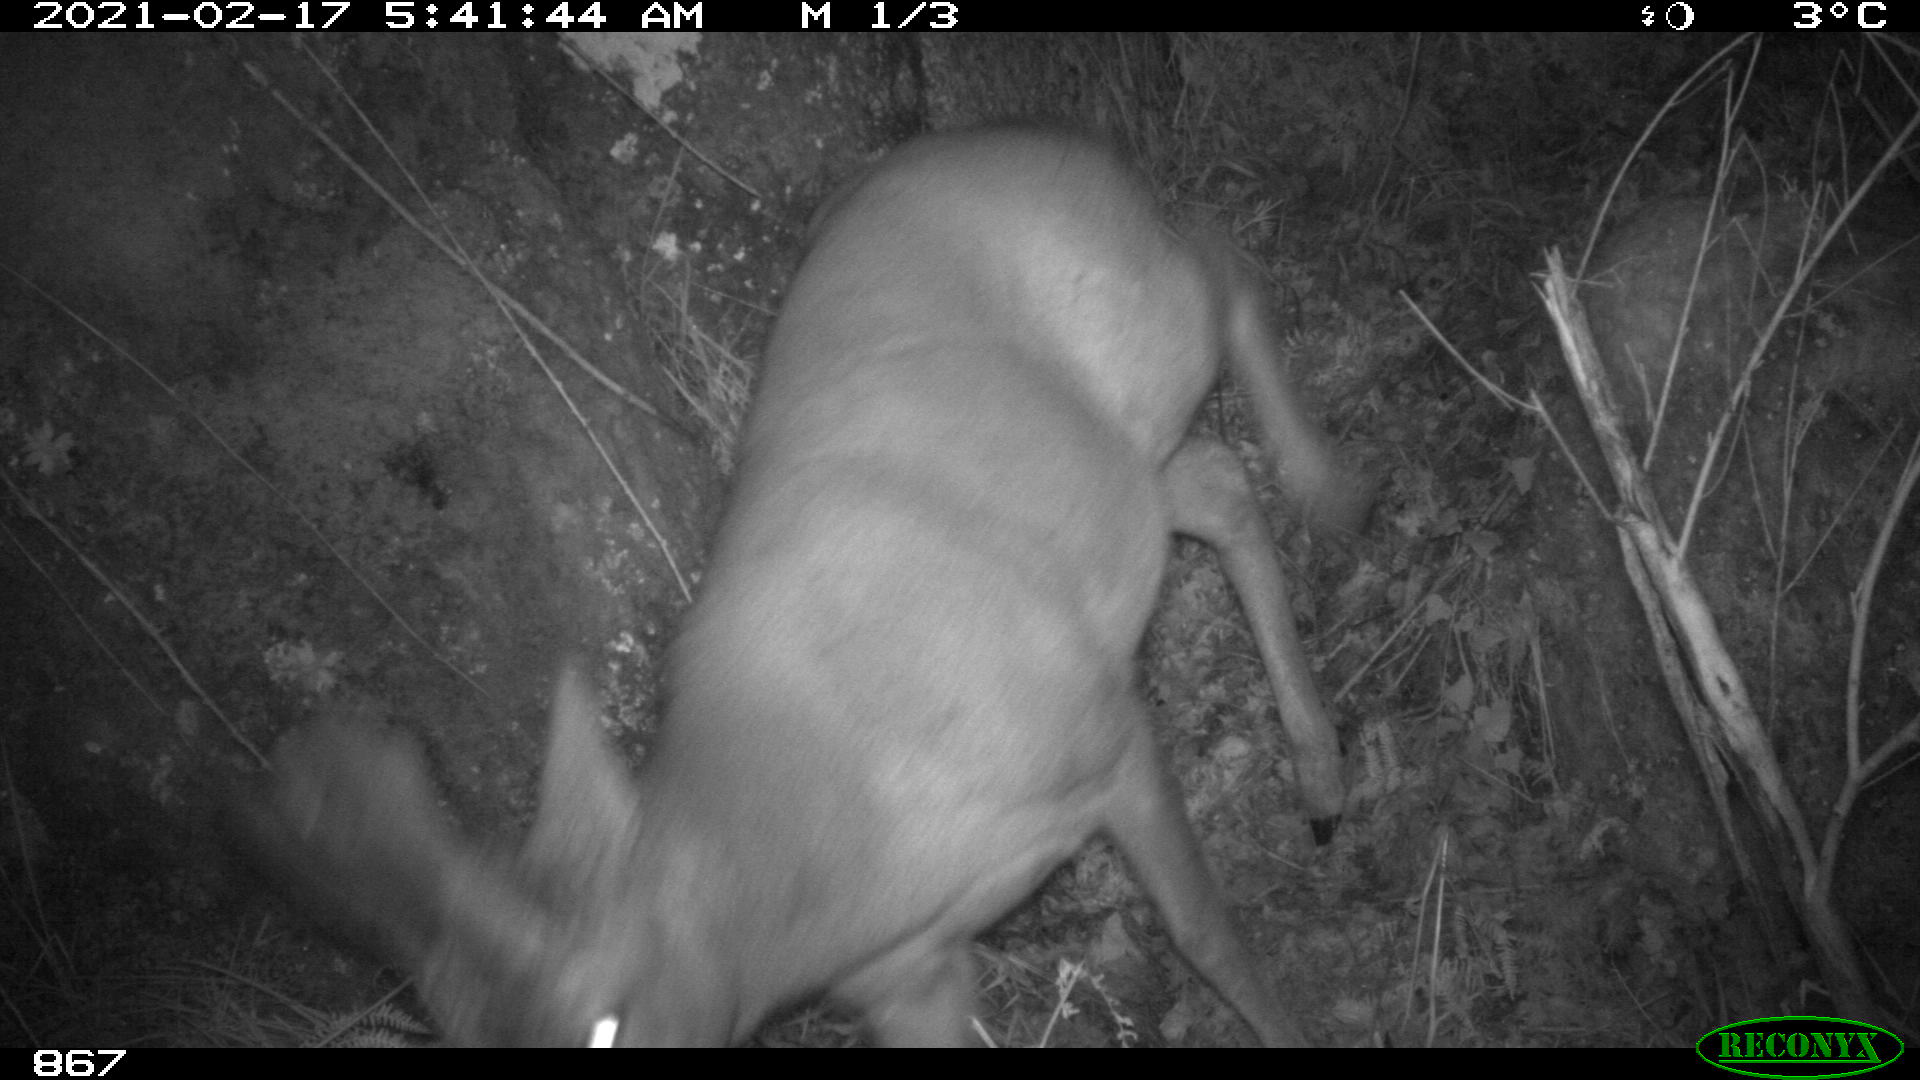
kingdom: Animalia
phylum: Chordata
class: Mammalia
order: Artiodactyla
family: Cervidae
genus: Capreolus
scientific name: Capreolus capreolus
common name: Western roe deer
